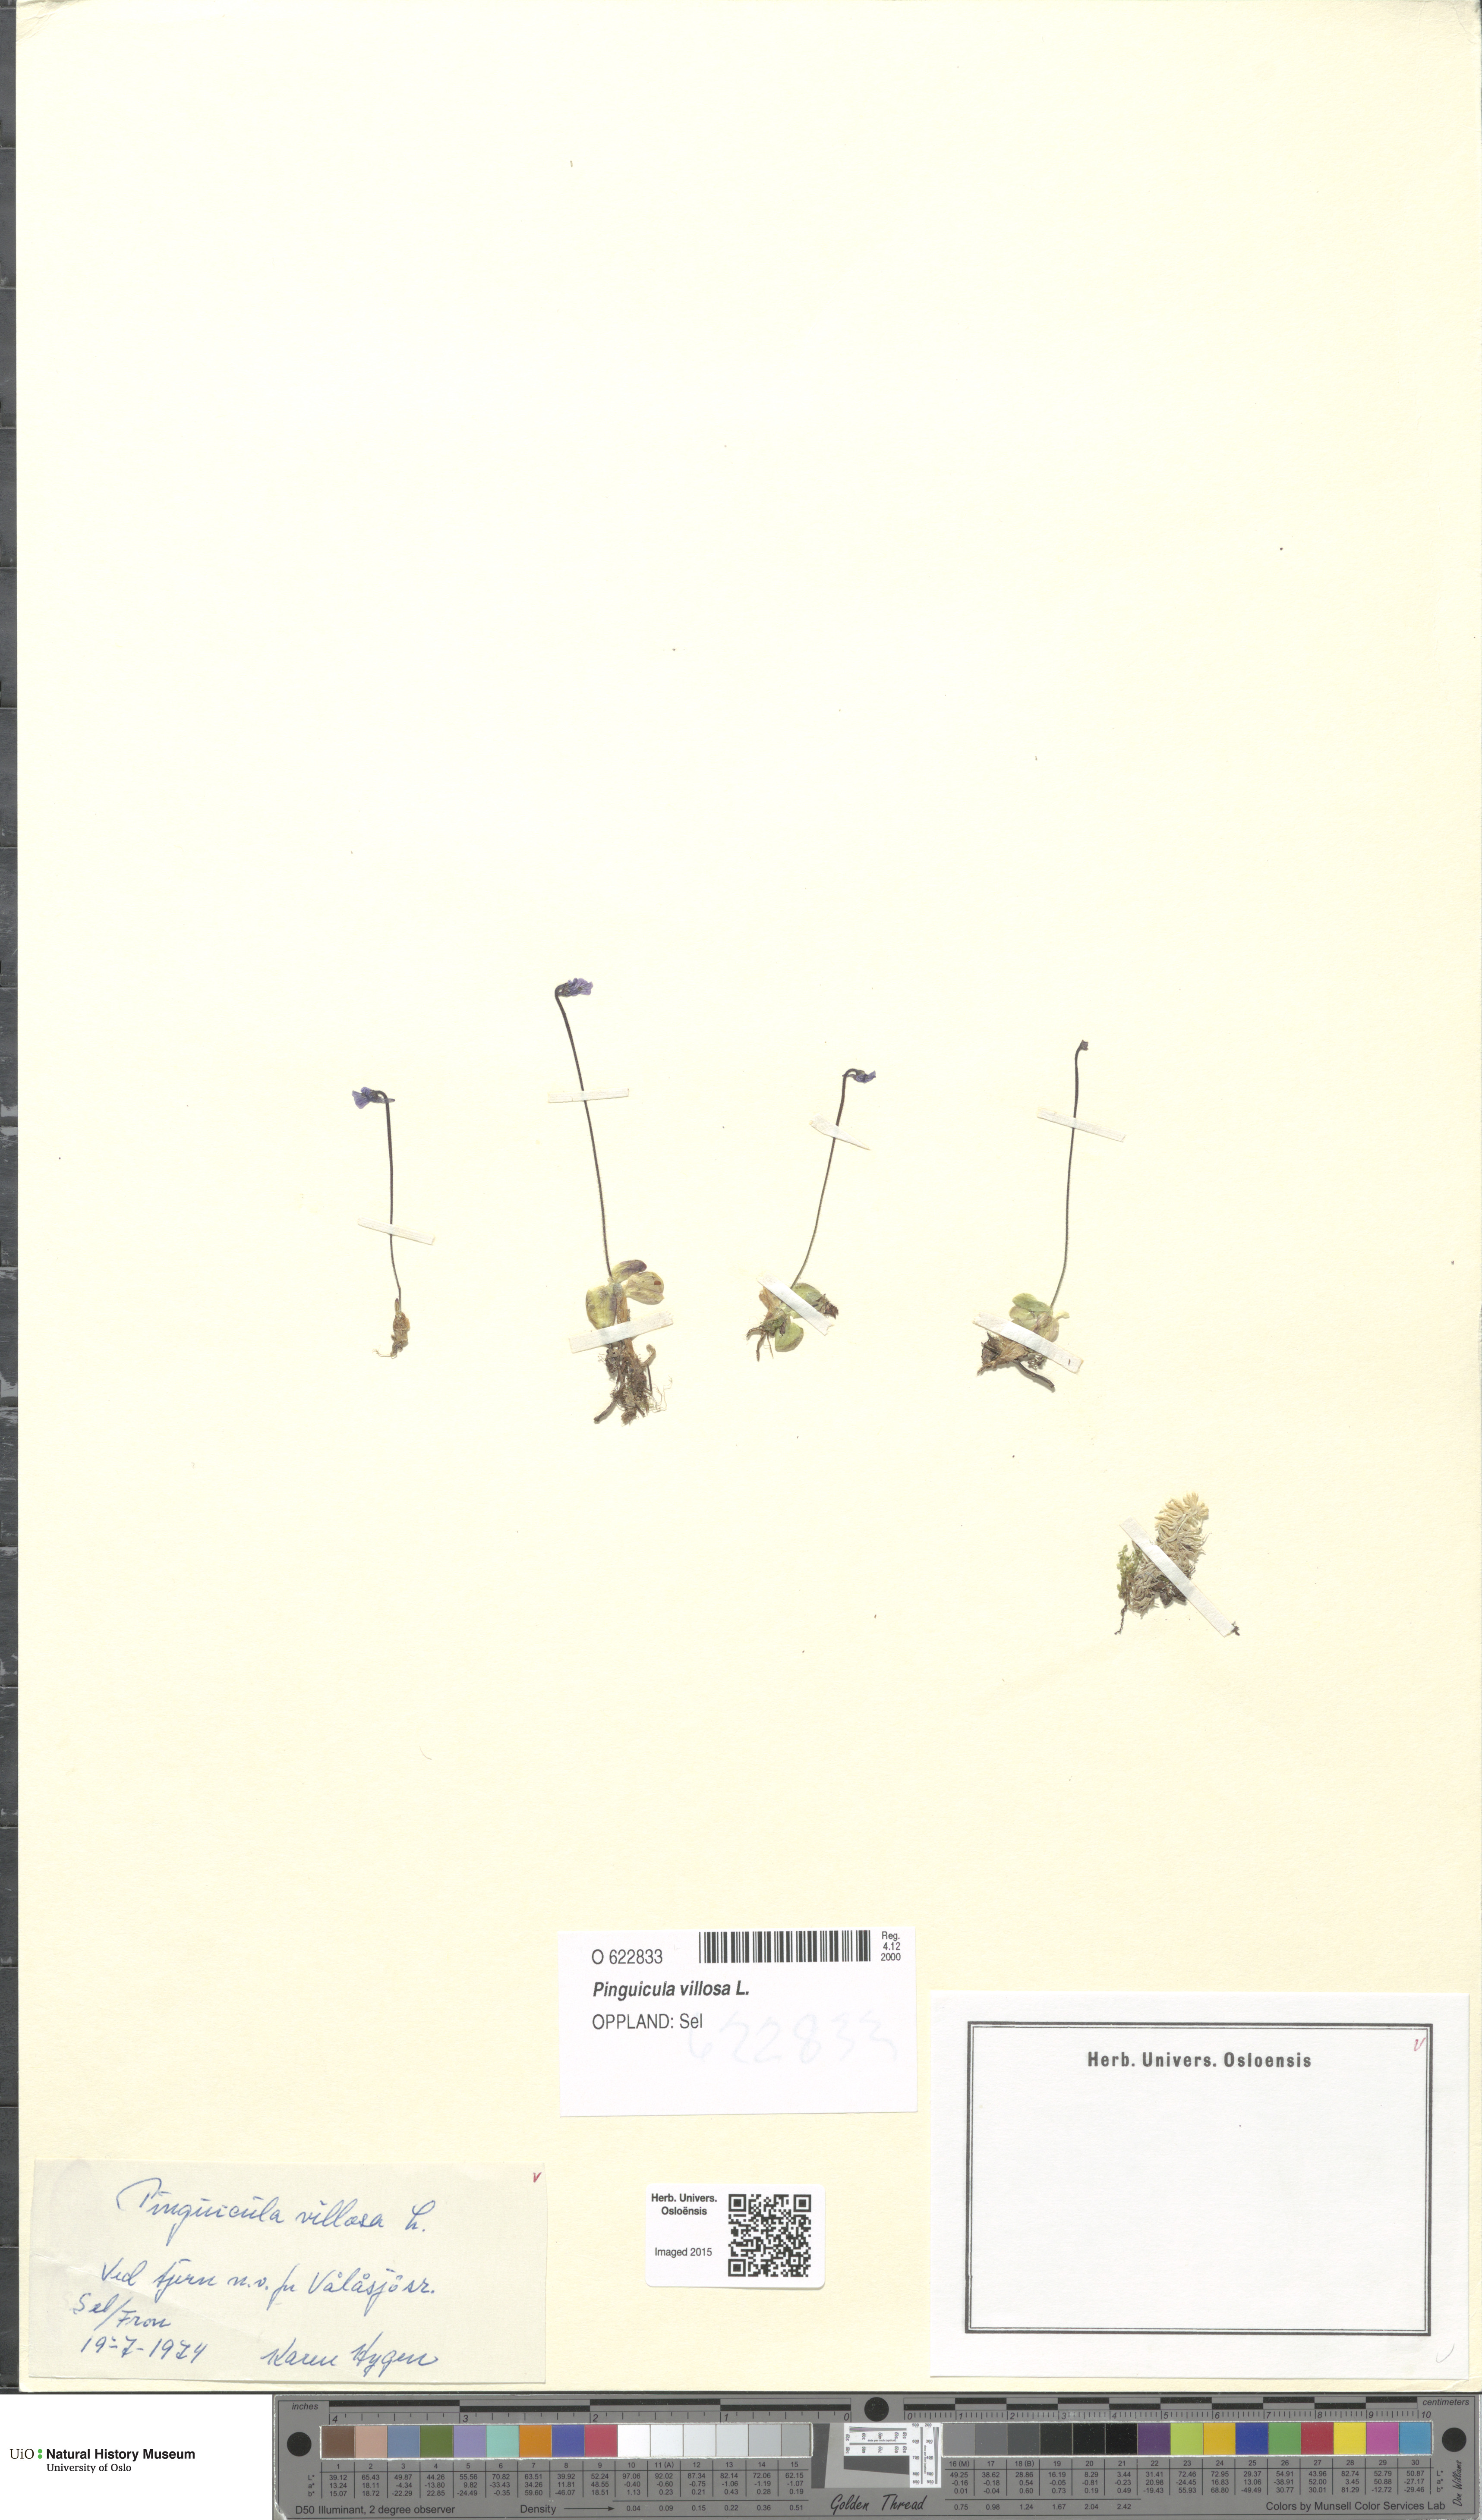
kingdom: Plantae
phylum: Tracheophyta
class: Magnoliopsida
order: Lamiales
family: Lentibulariaceae
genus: Pinguicula
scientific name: Pinguicula villosa
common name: Hairy butterwort
